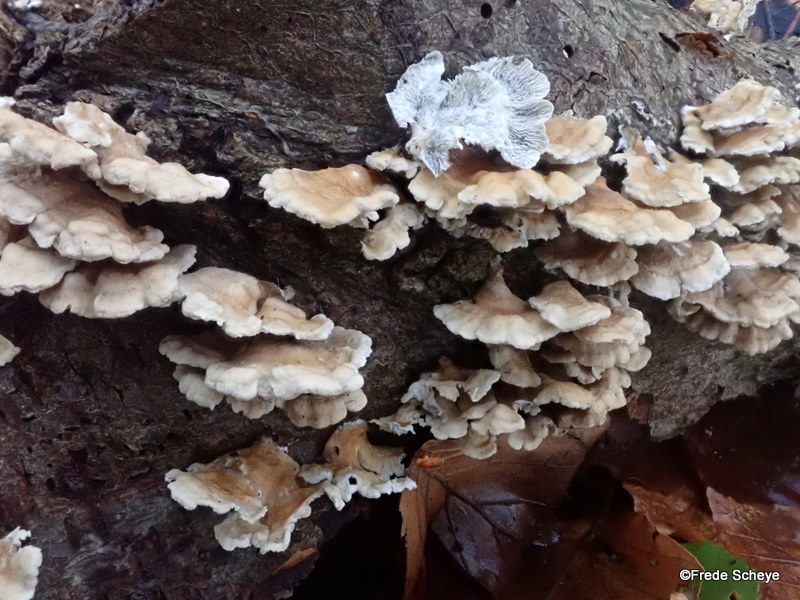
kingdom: Fungi
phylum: Basidiomycota
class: Agaricomycetes
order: Amylocorticiales
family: Amylocorticiaceae
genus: Plicaturopsis
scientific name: Plicaturopsis crispa
